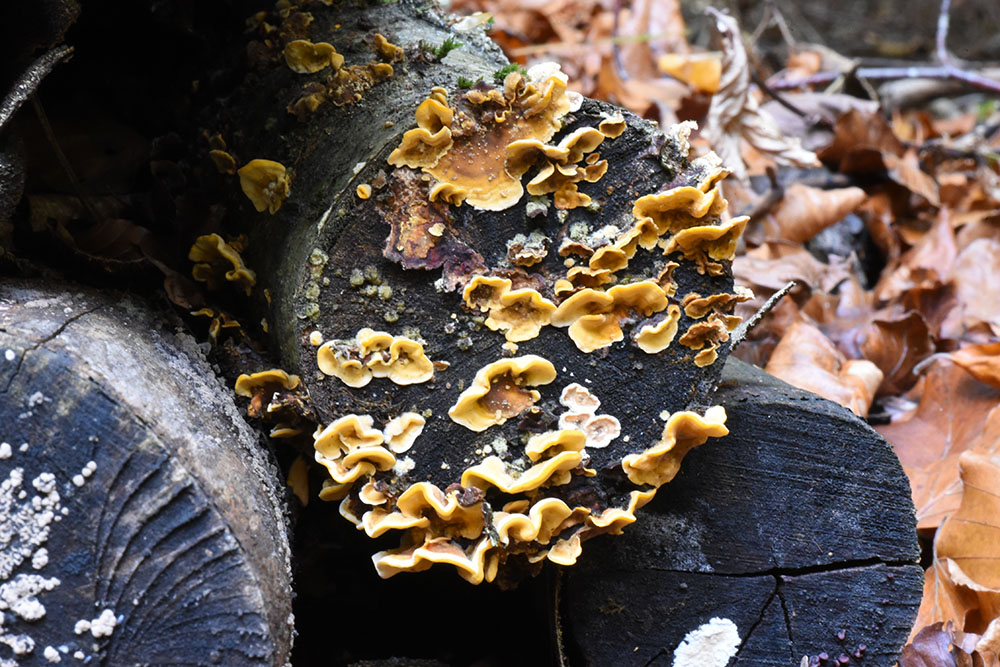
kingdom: Fungi
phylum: Basidiomycota
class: Agaricomycetes
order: Russulales
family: Stereaceae
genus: Stereum
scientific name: Stereum hirsutum
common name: Hairy curtain crust
